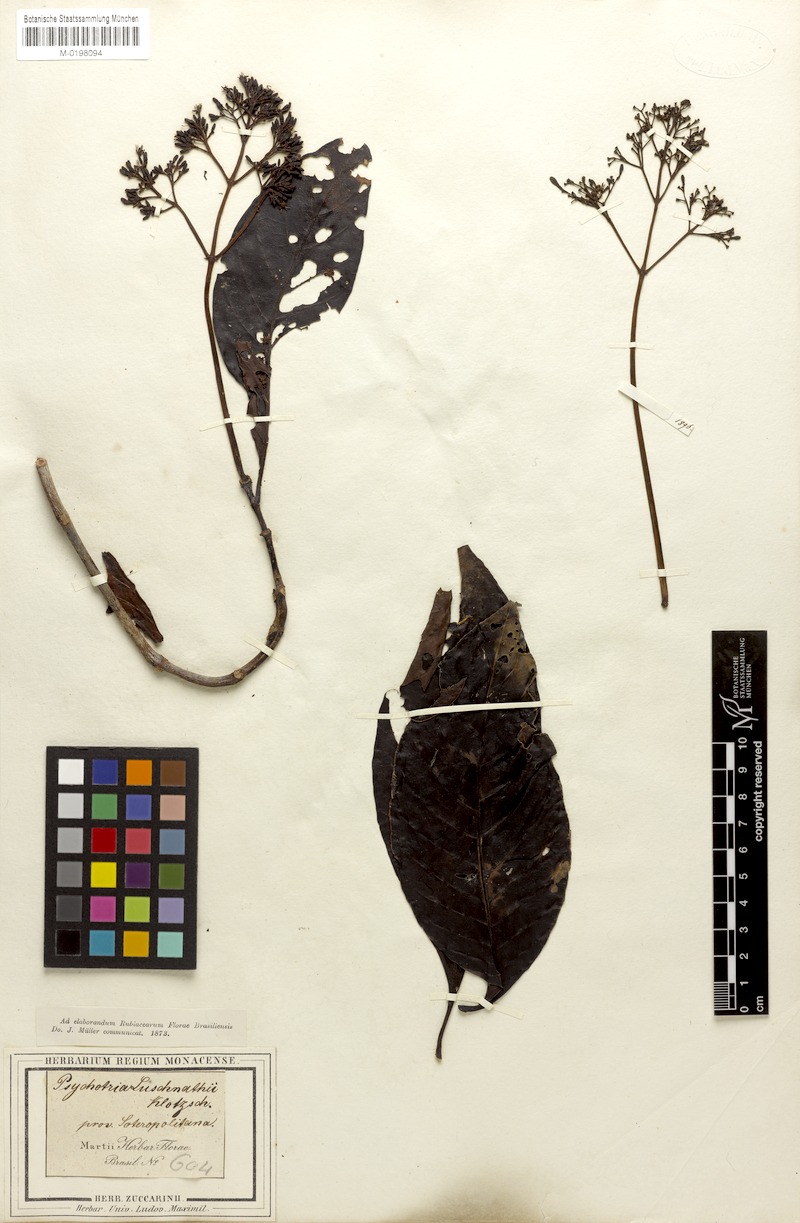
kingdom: Plantae
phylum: Tracheophyta
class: Magnoliopsida
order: Gentianales
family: Rubiaceae
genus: Psychotria
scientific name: Psychotria pedunculosa
